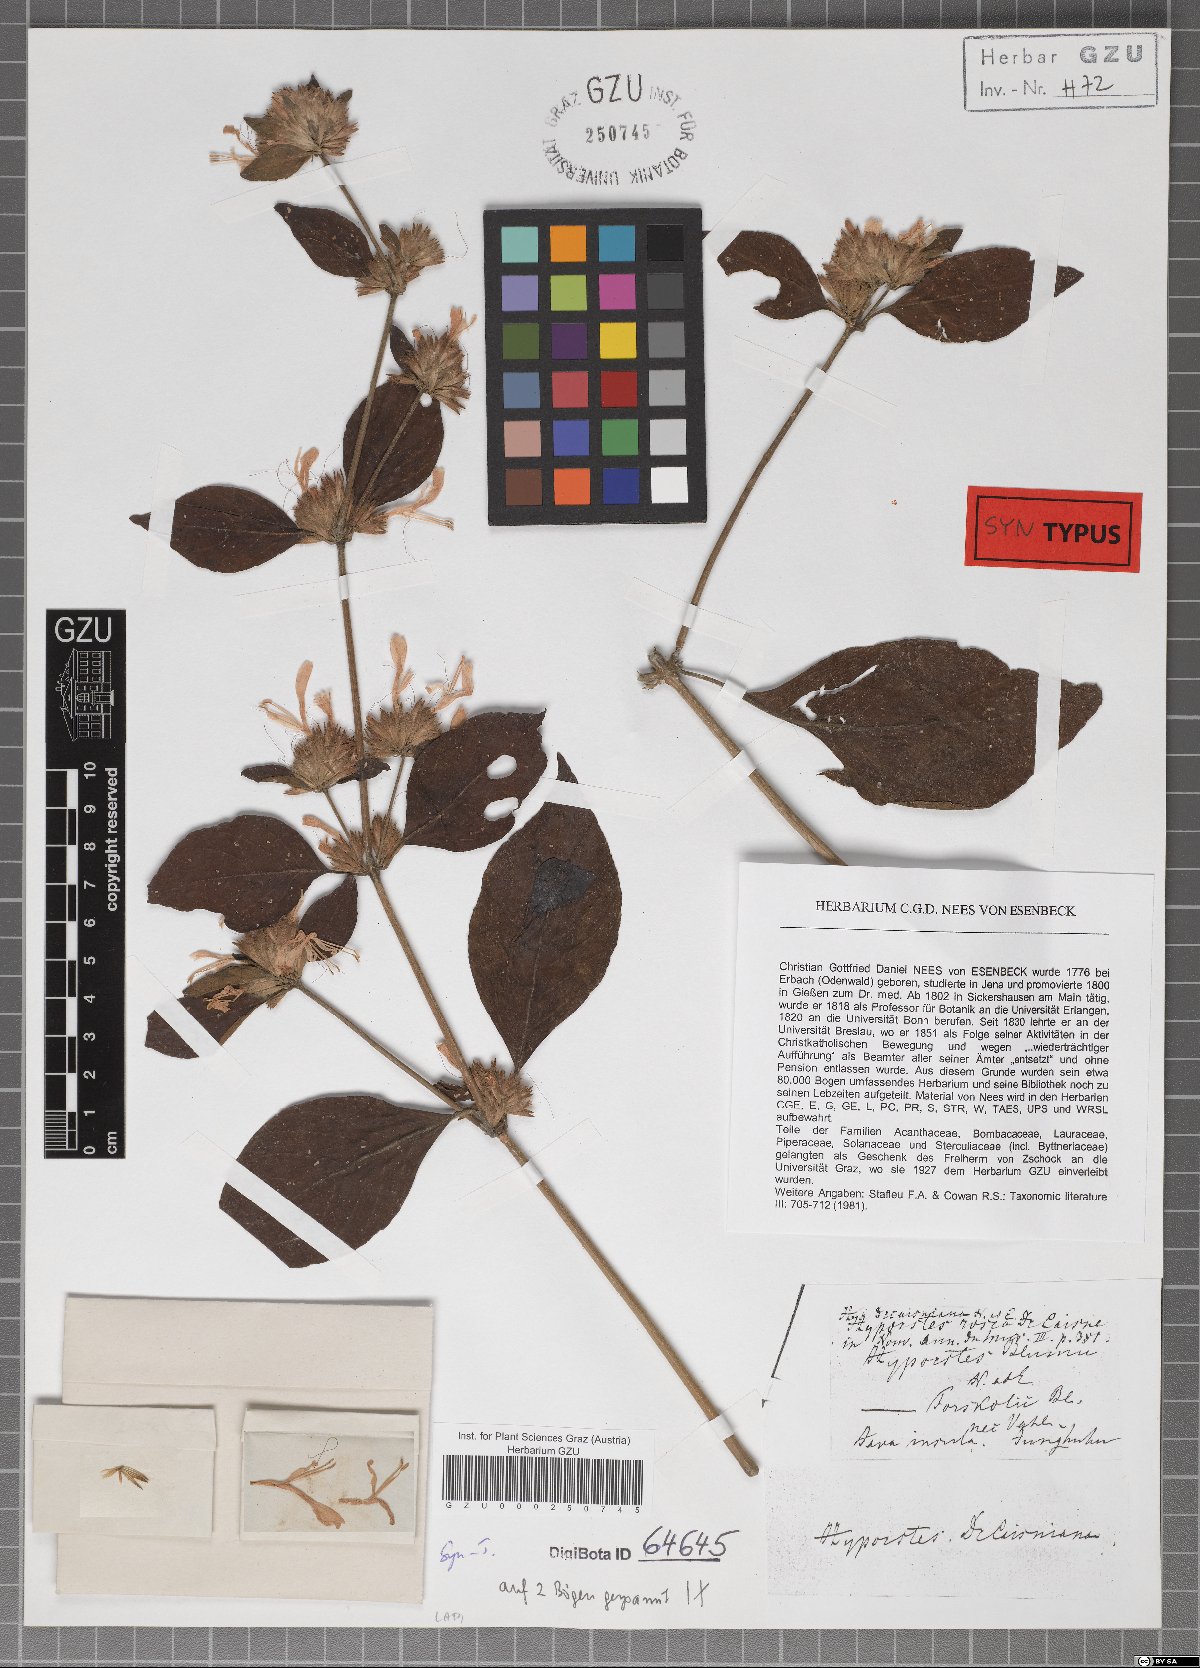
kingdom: Plantae
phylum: Tracheophyta
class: Magnoliopsida
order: Lamiales
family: Acanthaceae
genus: Hypoestes
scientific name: Hypoestes decaisneana
